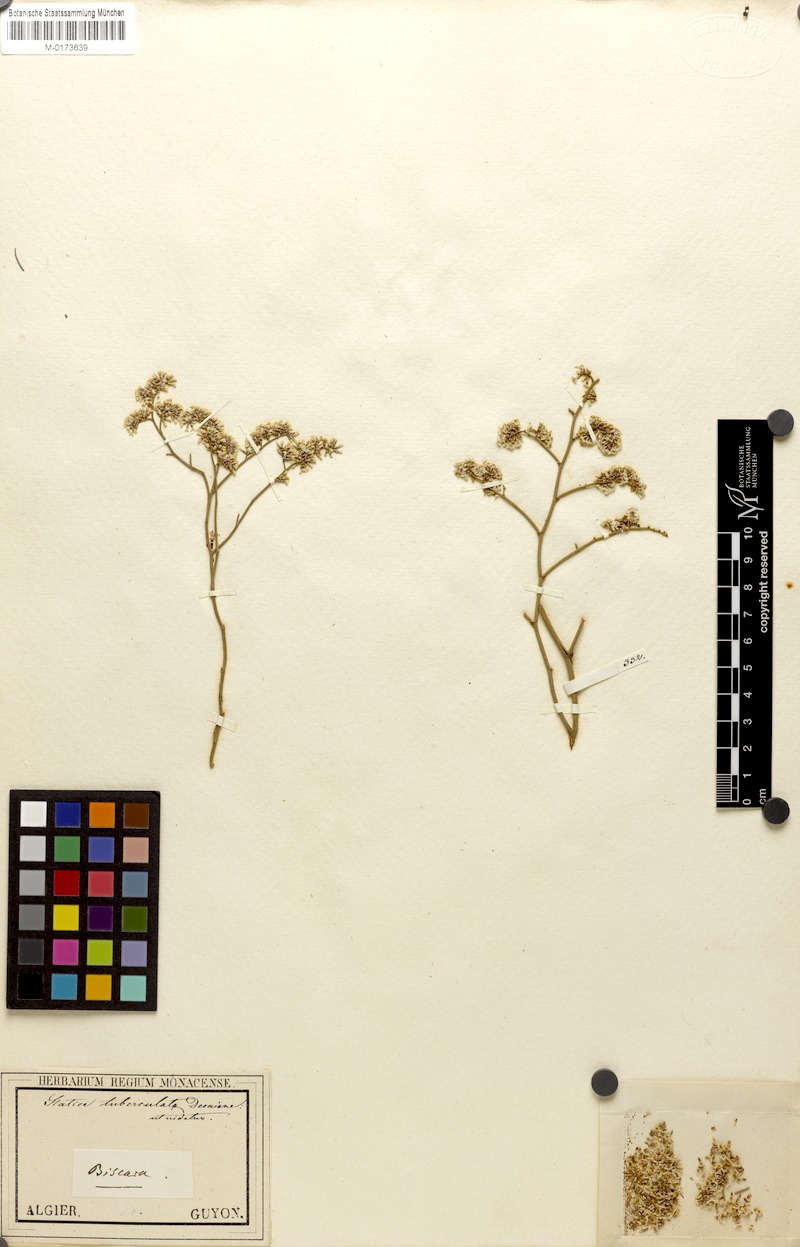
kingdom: Plantae
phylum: Tracheophyta
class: Magnoliopsida
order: Caryophyllales
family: Plumbaginaceae
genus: Limonium
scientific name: Limonium tuberculatum
